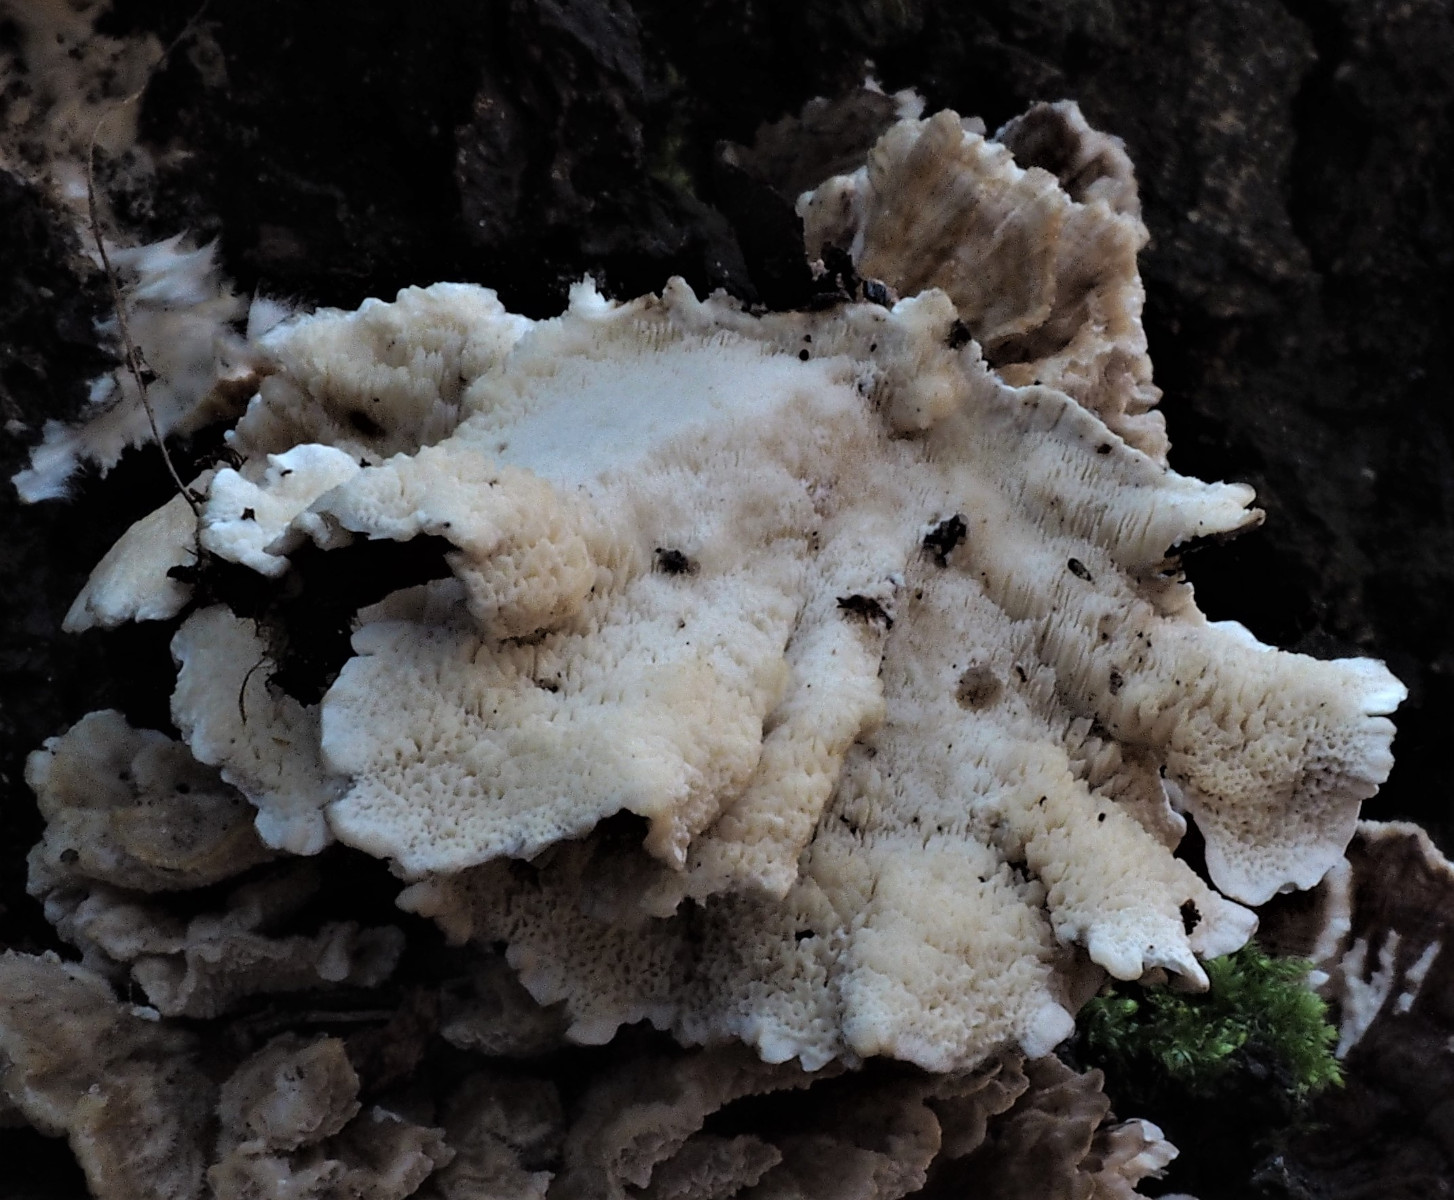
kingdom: Fungi
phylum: Basidiomycota
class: Agaricomycetes
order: Polyporales
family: Polyporaceae
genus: Trametes
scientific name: Trametes versicolor
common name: broget læderporesvamp
